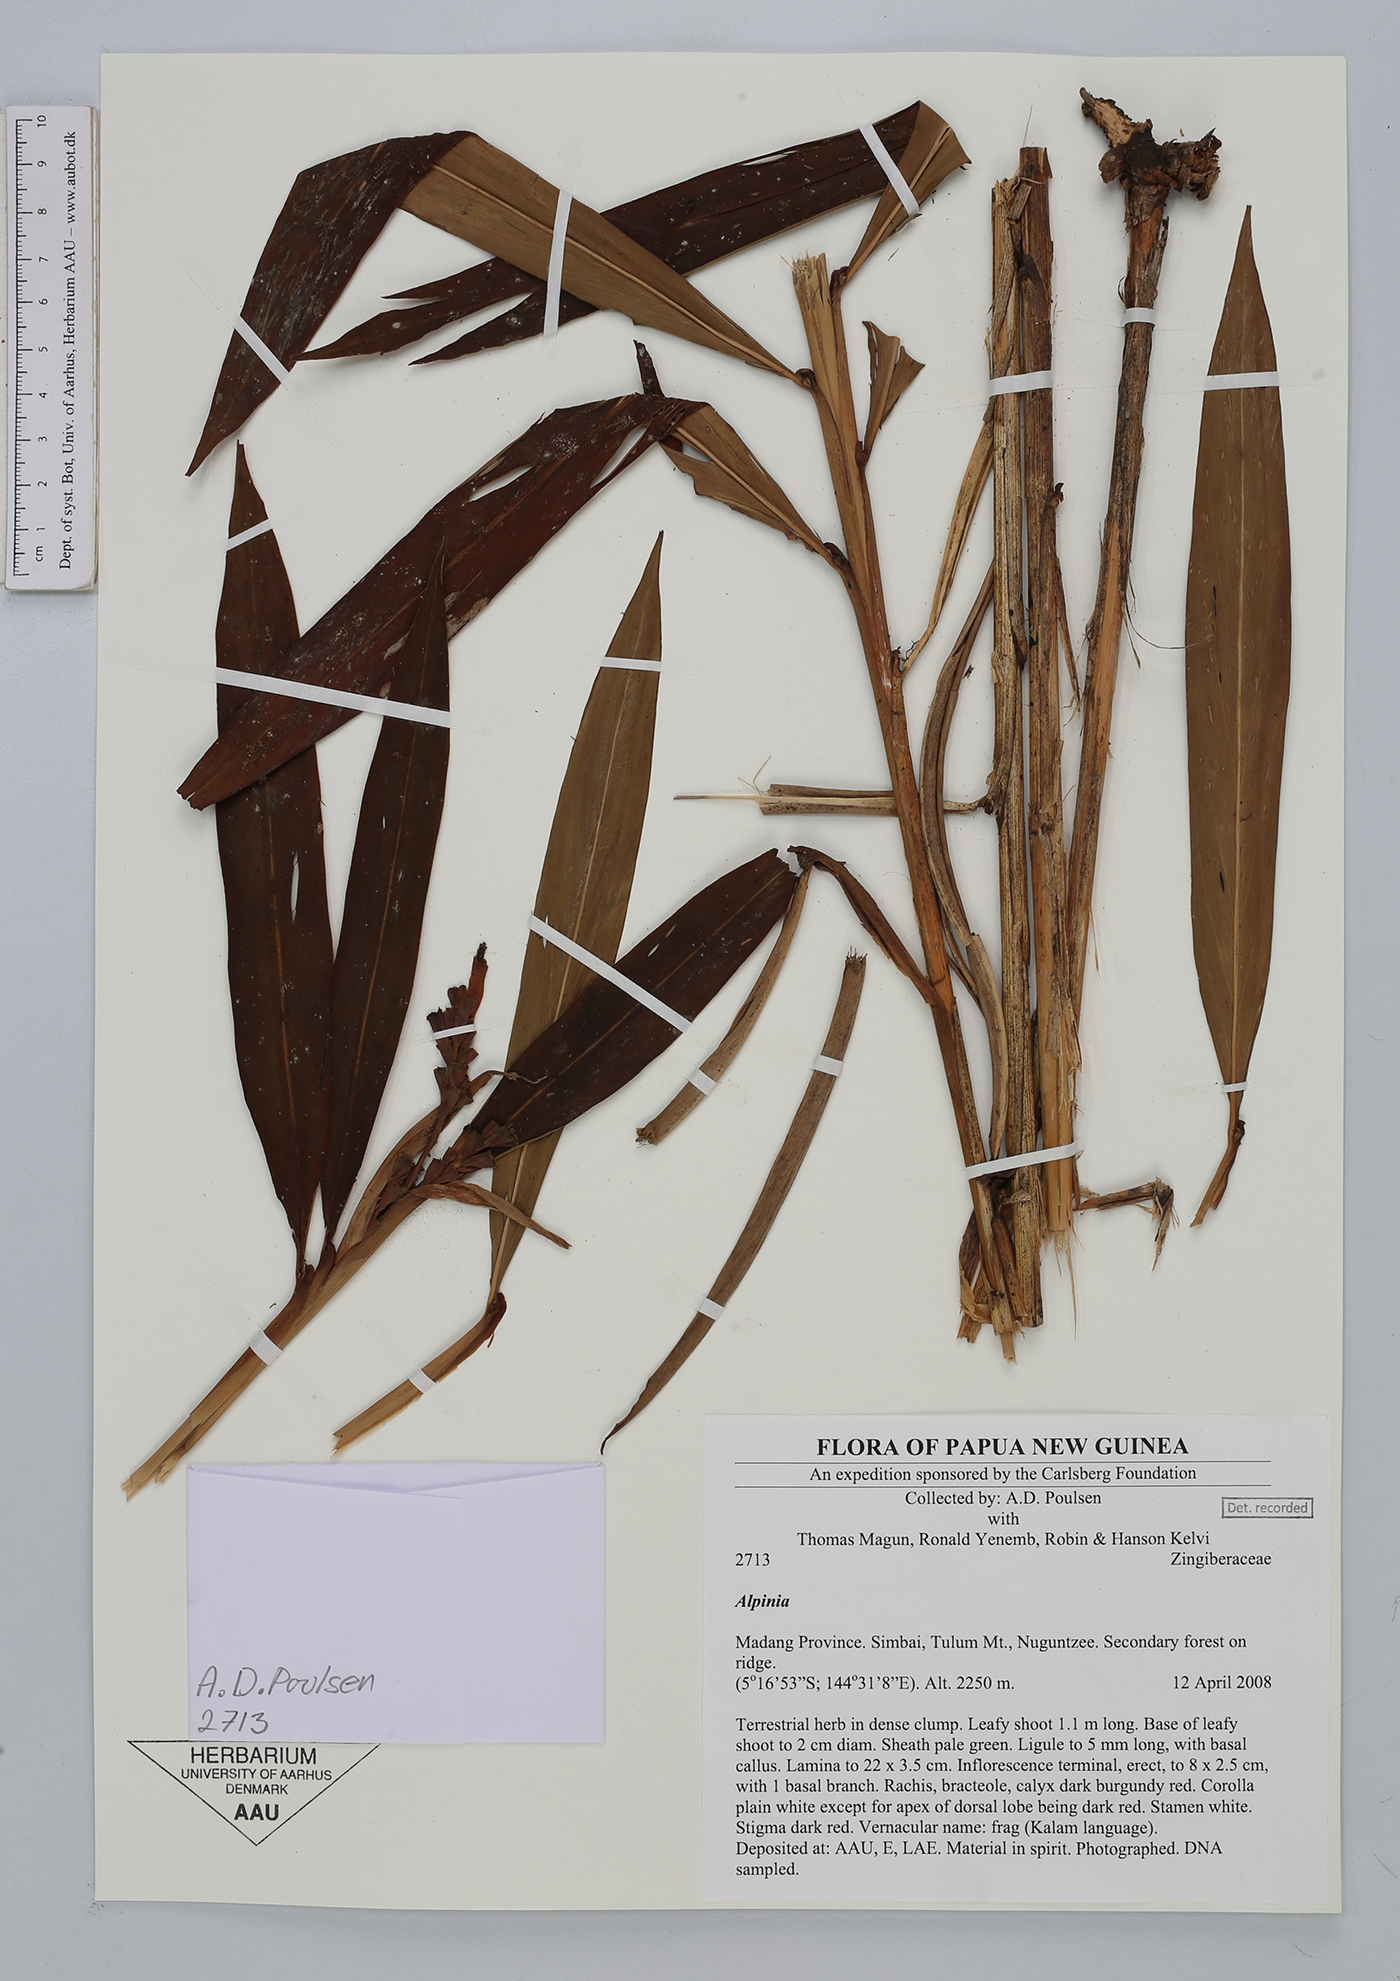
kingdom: Plantae
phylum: Tracheophyta
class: Liliopsida
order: Zingiberales
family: Zingiberaceae
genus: Alpinia
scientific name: Alpinia
